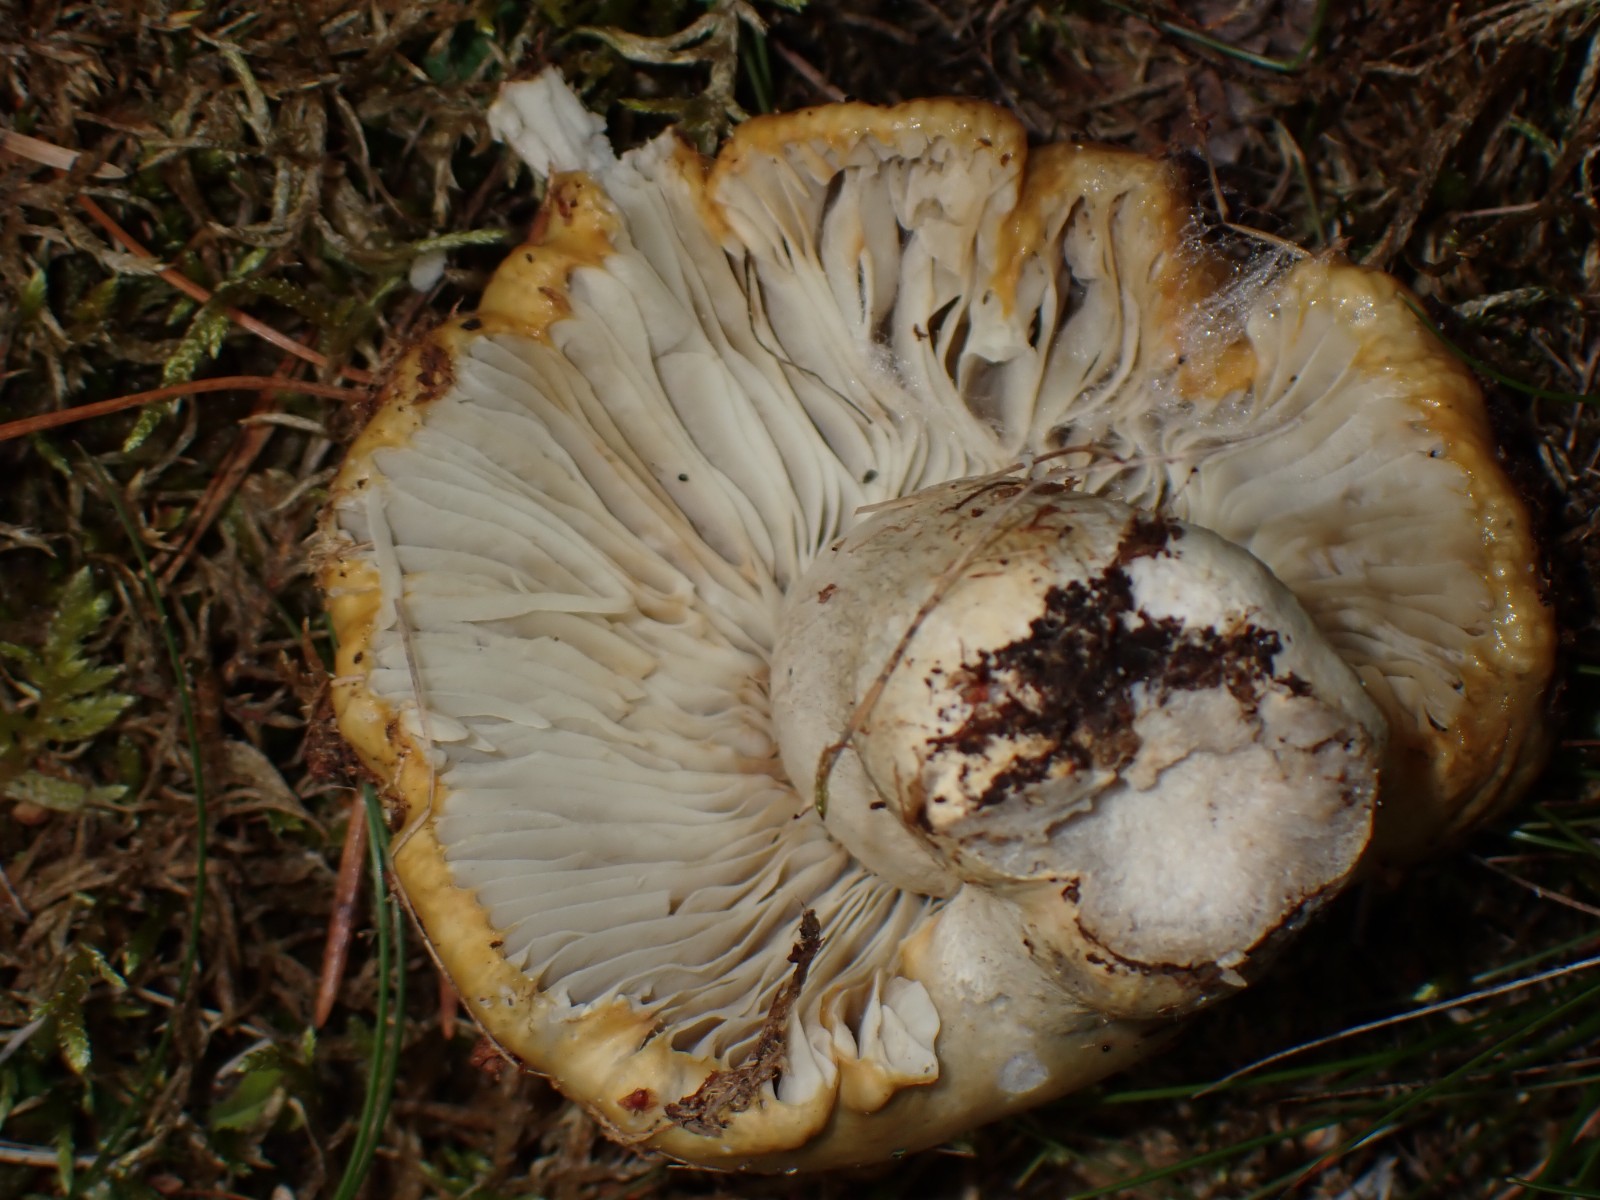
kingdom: Fungi
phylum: Basidiomycota
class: Agaricomycetes
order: Russulales
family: Russulaceae
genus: Russula
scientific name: Russula ochroleuca
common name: okkergul skørhat
